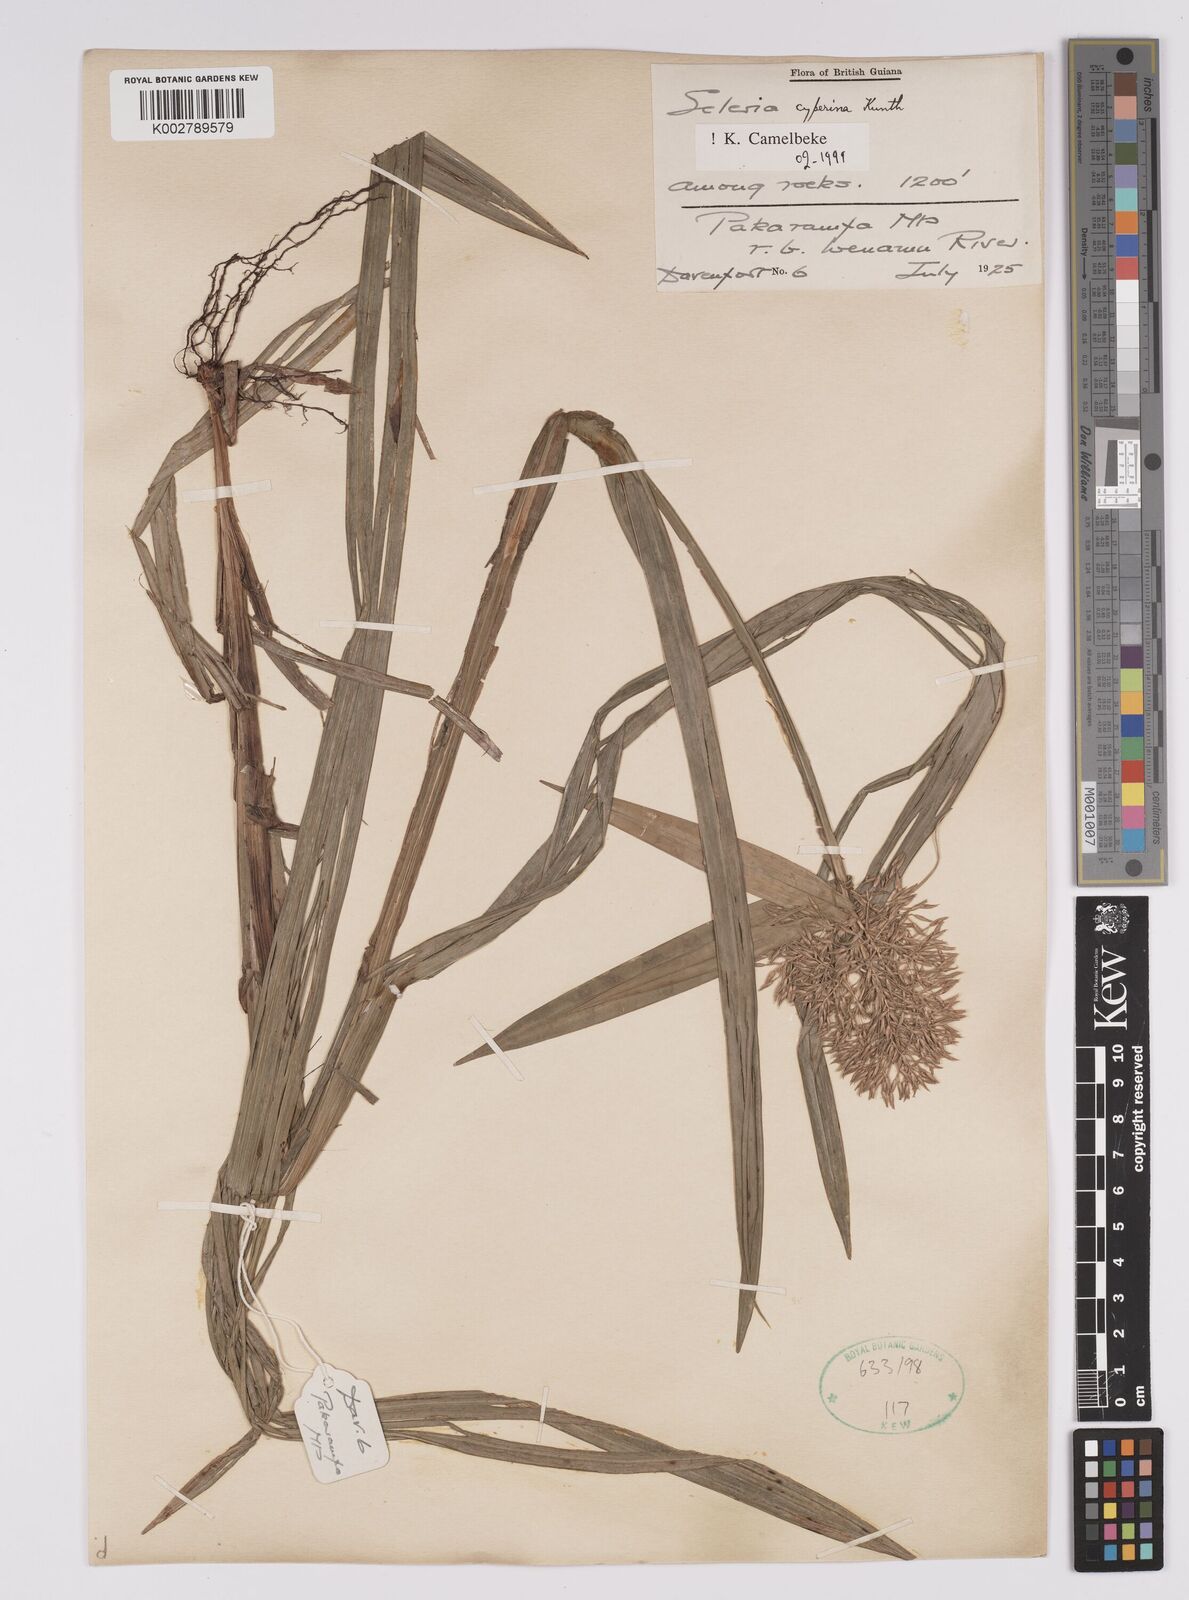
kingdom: Plantae
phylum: Tracheophyta
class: Liliopsida
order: Poales
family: Cyperaceae
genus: Scleria
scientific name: Scleria cyperina
